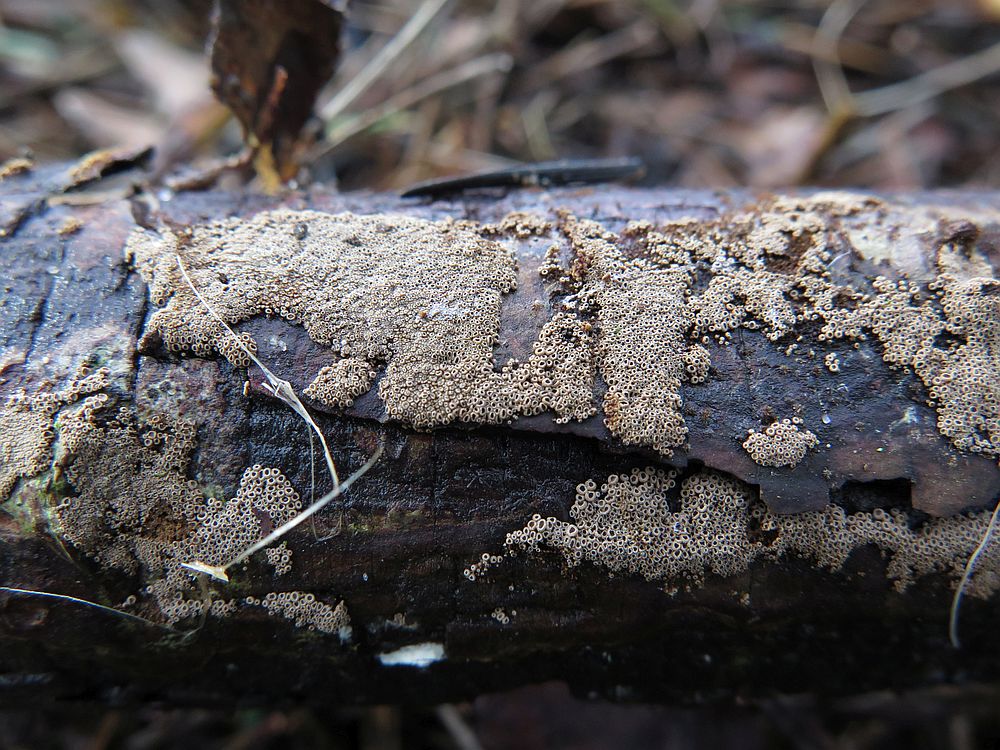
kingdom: Fungi
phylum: Basidiomycota
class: Agaricomycetes
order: Agaricales
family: Niaceae
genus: Merismodes
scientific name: Merismodes anomala
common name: almindelig læderskål
